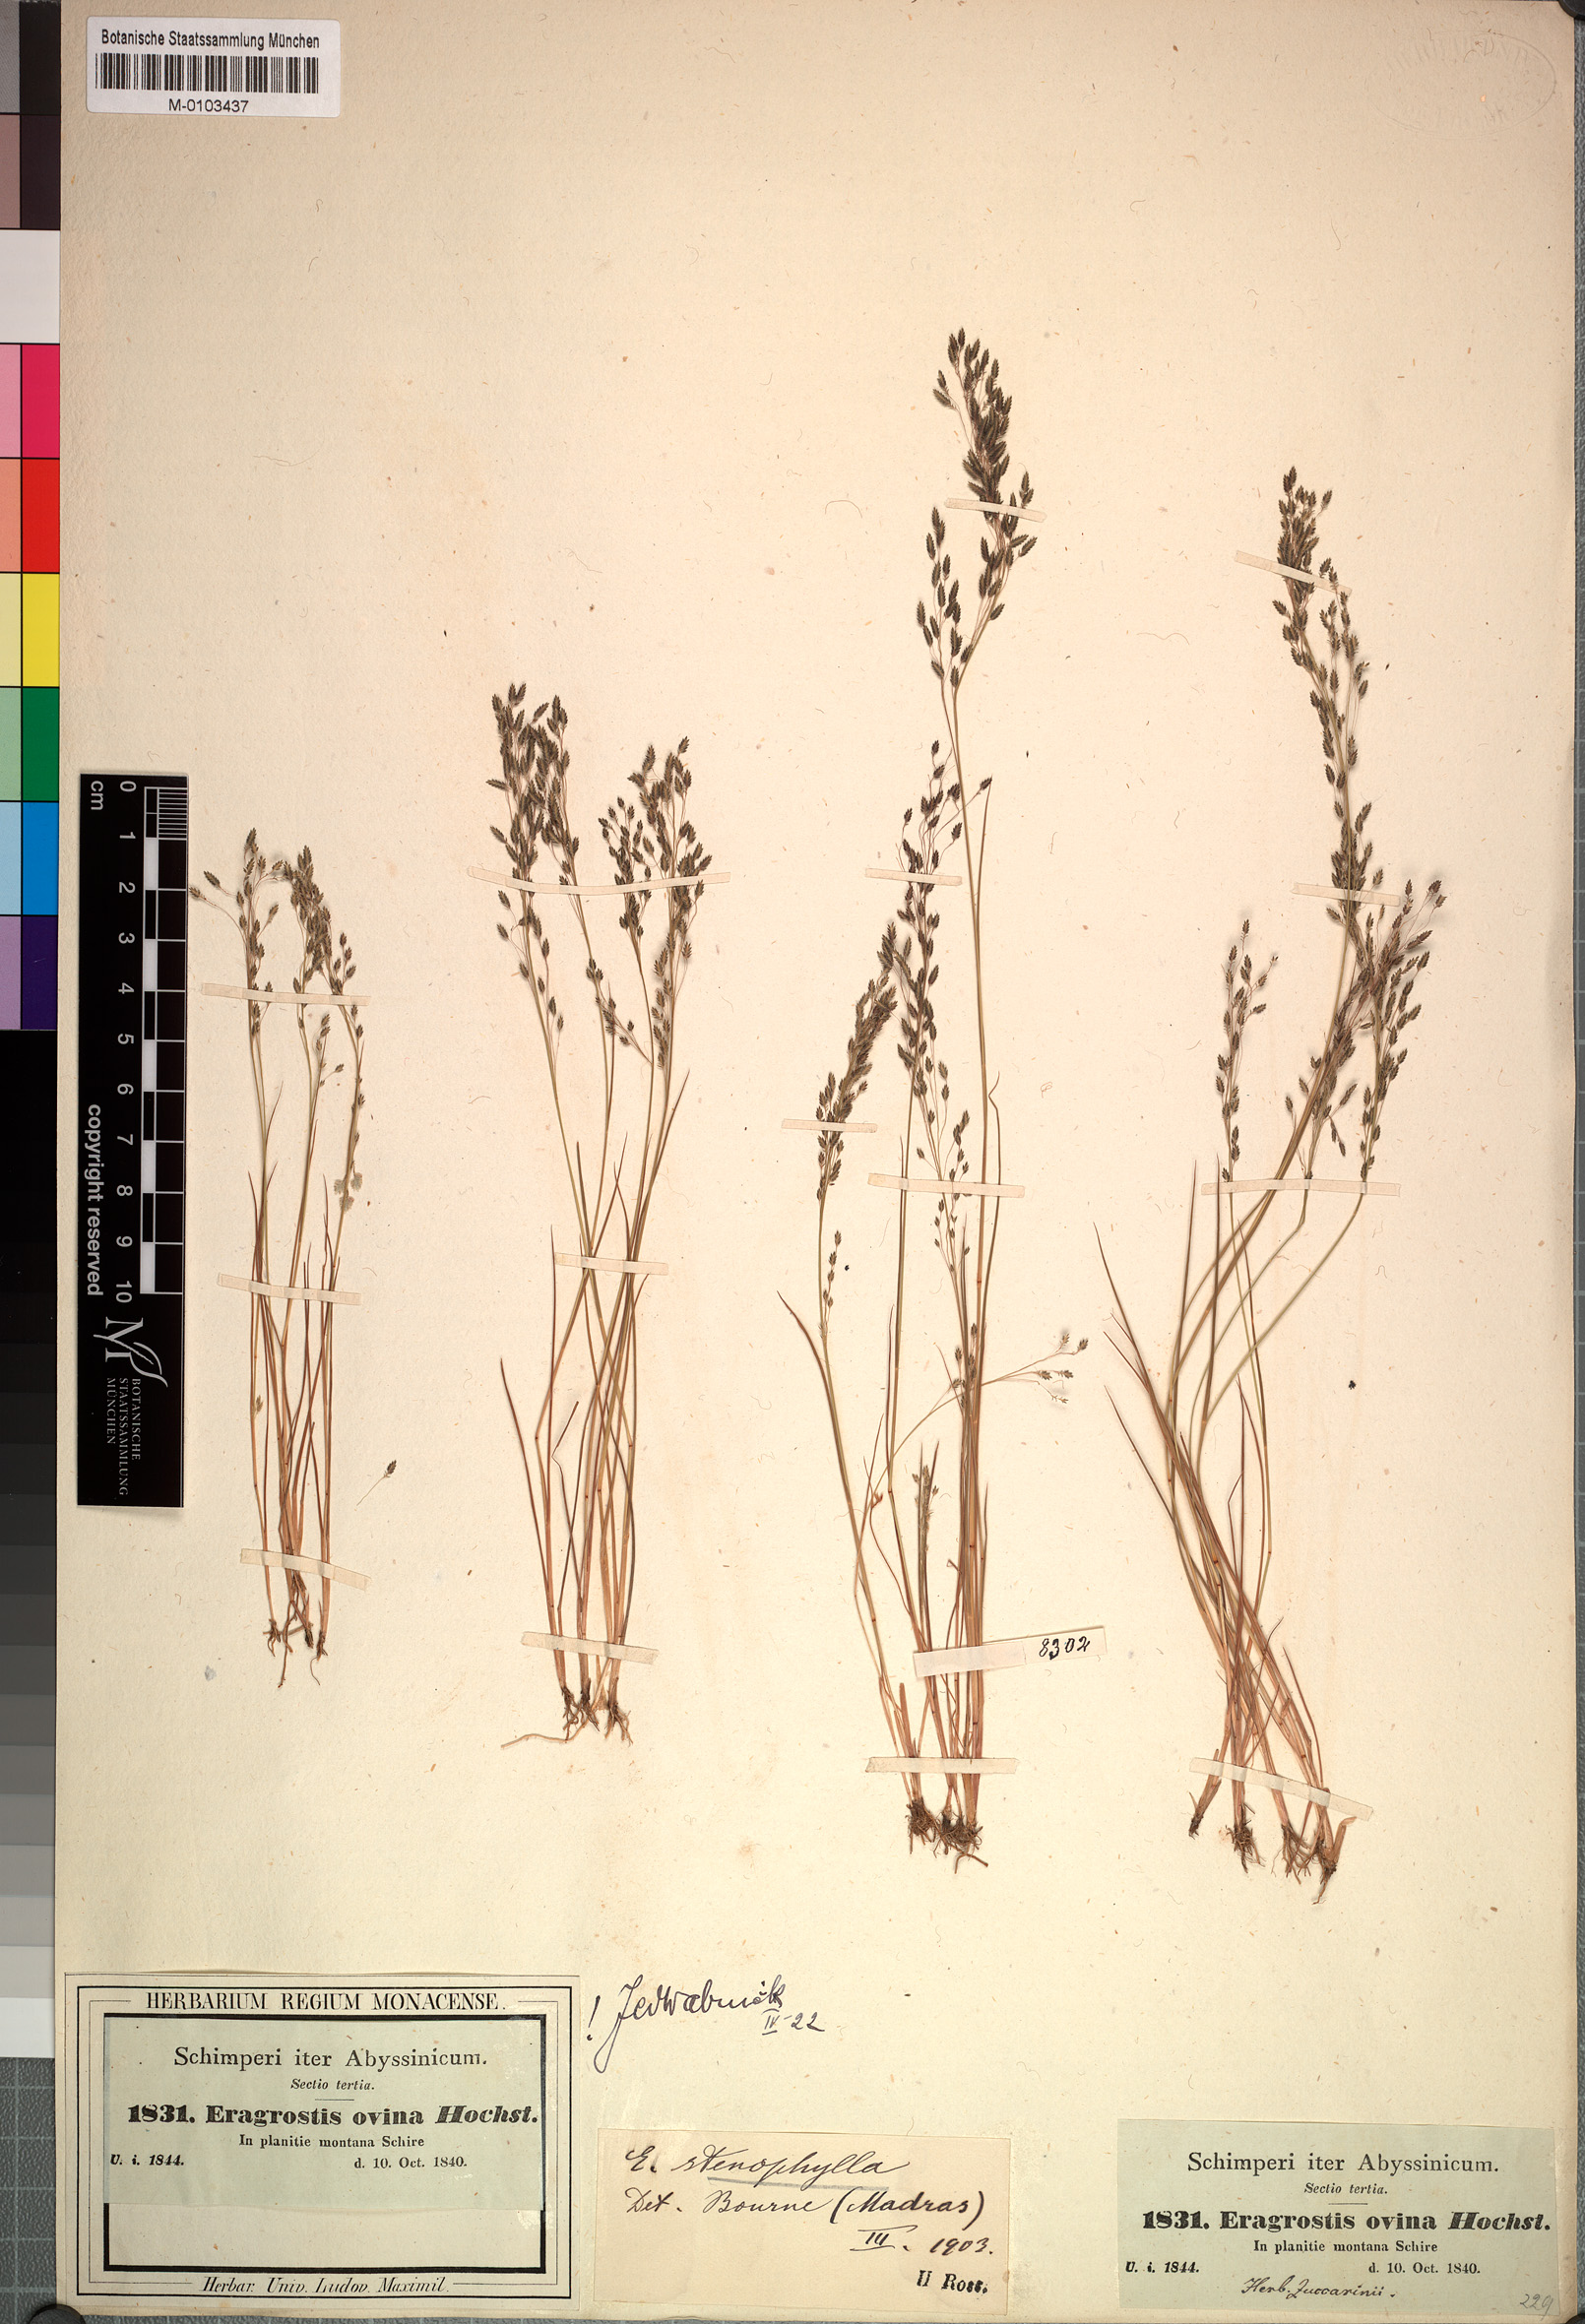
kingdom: Plantae
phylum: Tracheophyta
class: Liliopsida
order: Poales
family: Poaceae
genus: Eragrostis
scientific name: Eragrostis gangetica
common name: Slimflower lovegrass
